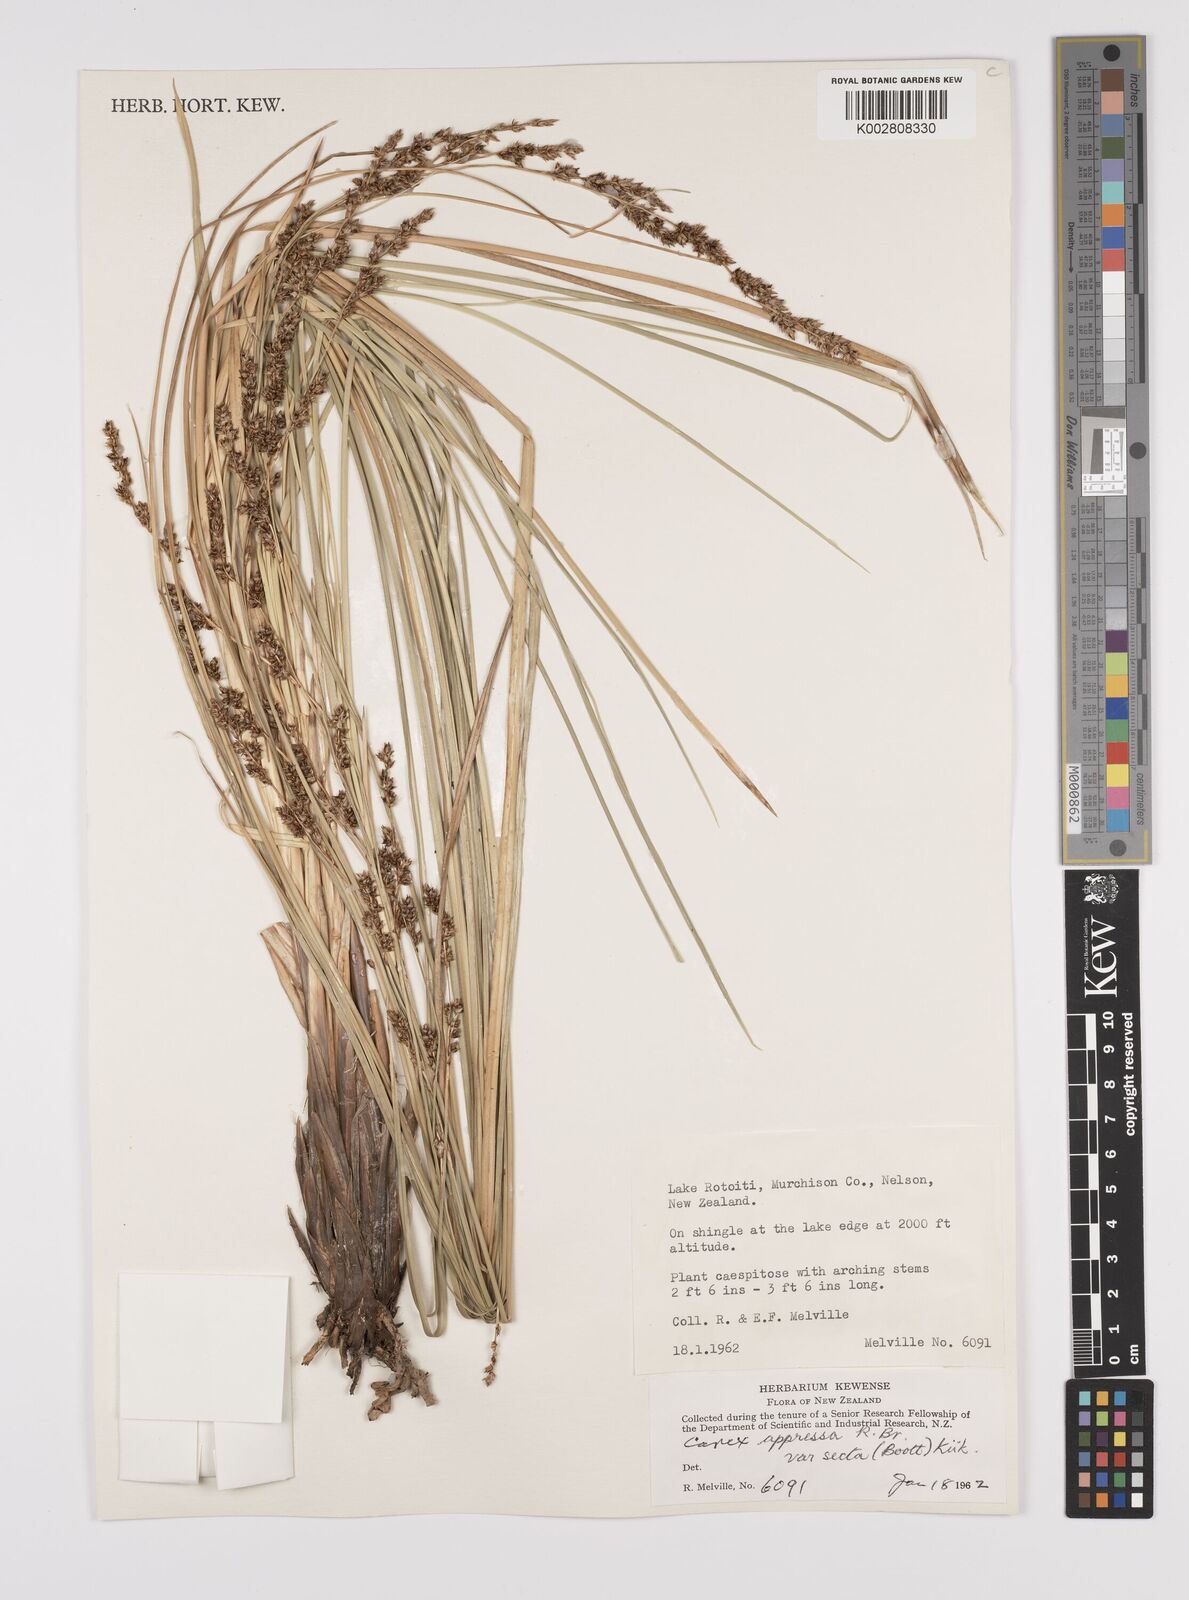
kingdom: Plantae
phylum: Tracheophyta
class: Liliopsida
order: Poales
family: Cyperaceae
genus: Carex
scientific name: Carex appressa
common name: Tussock sedge
